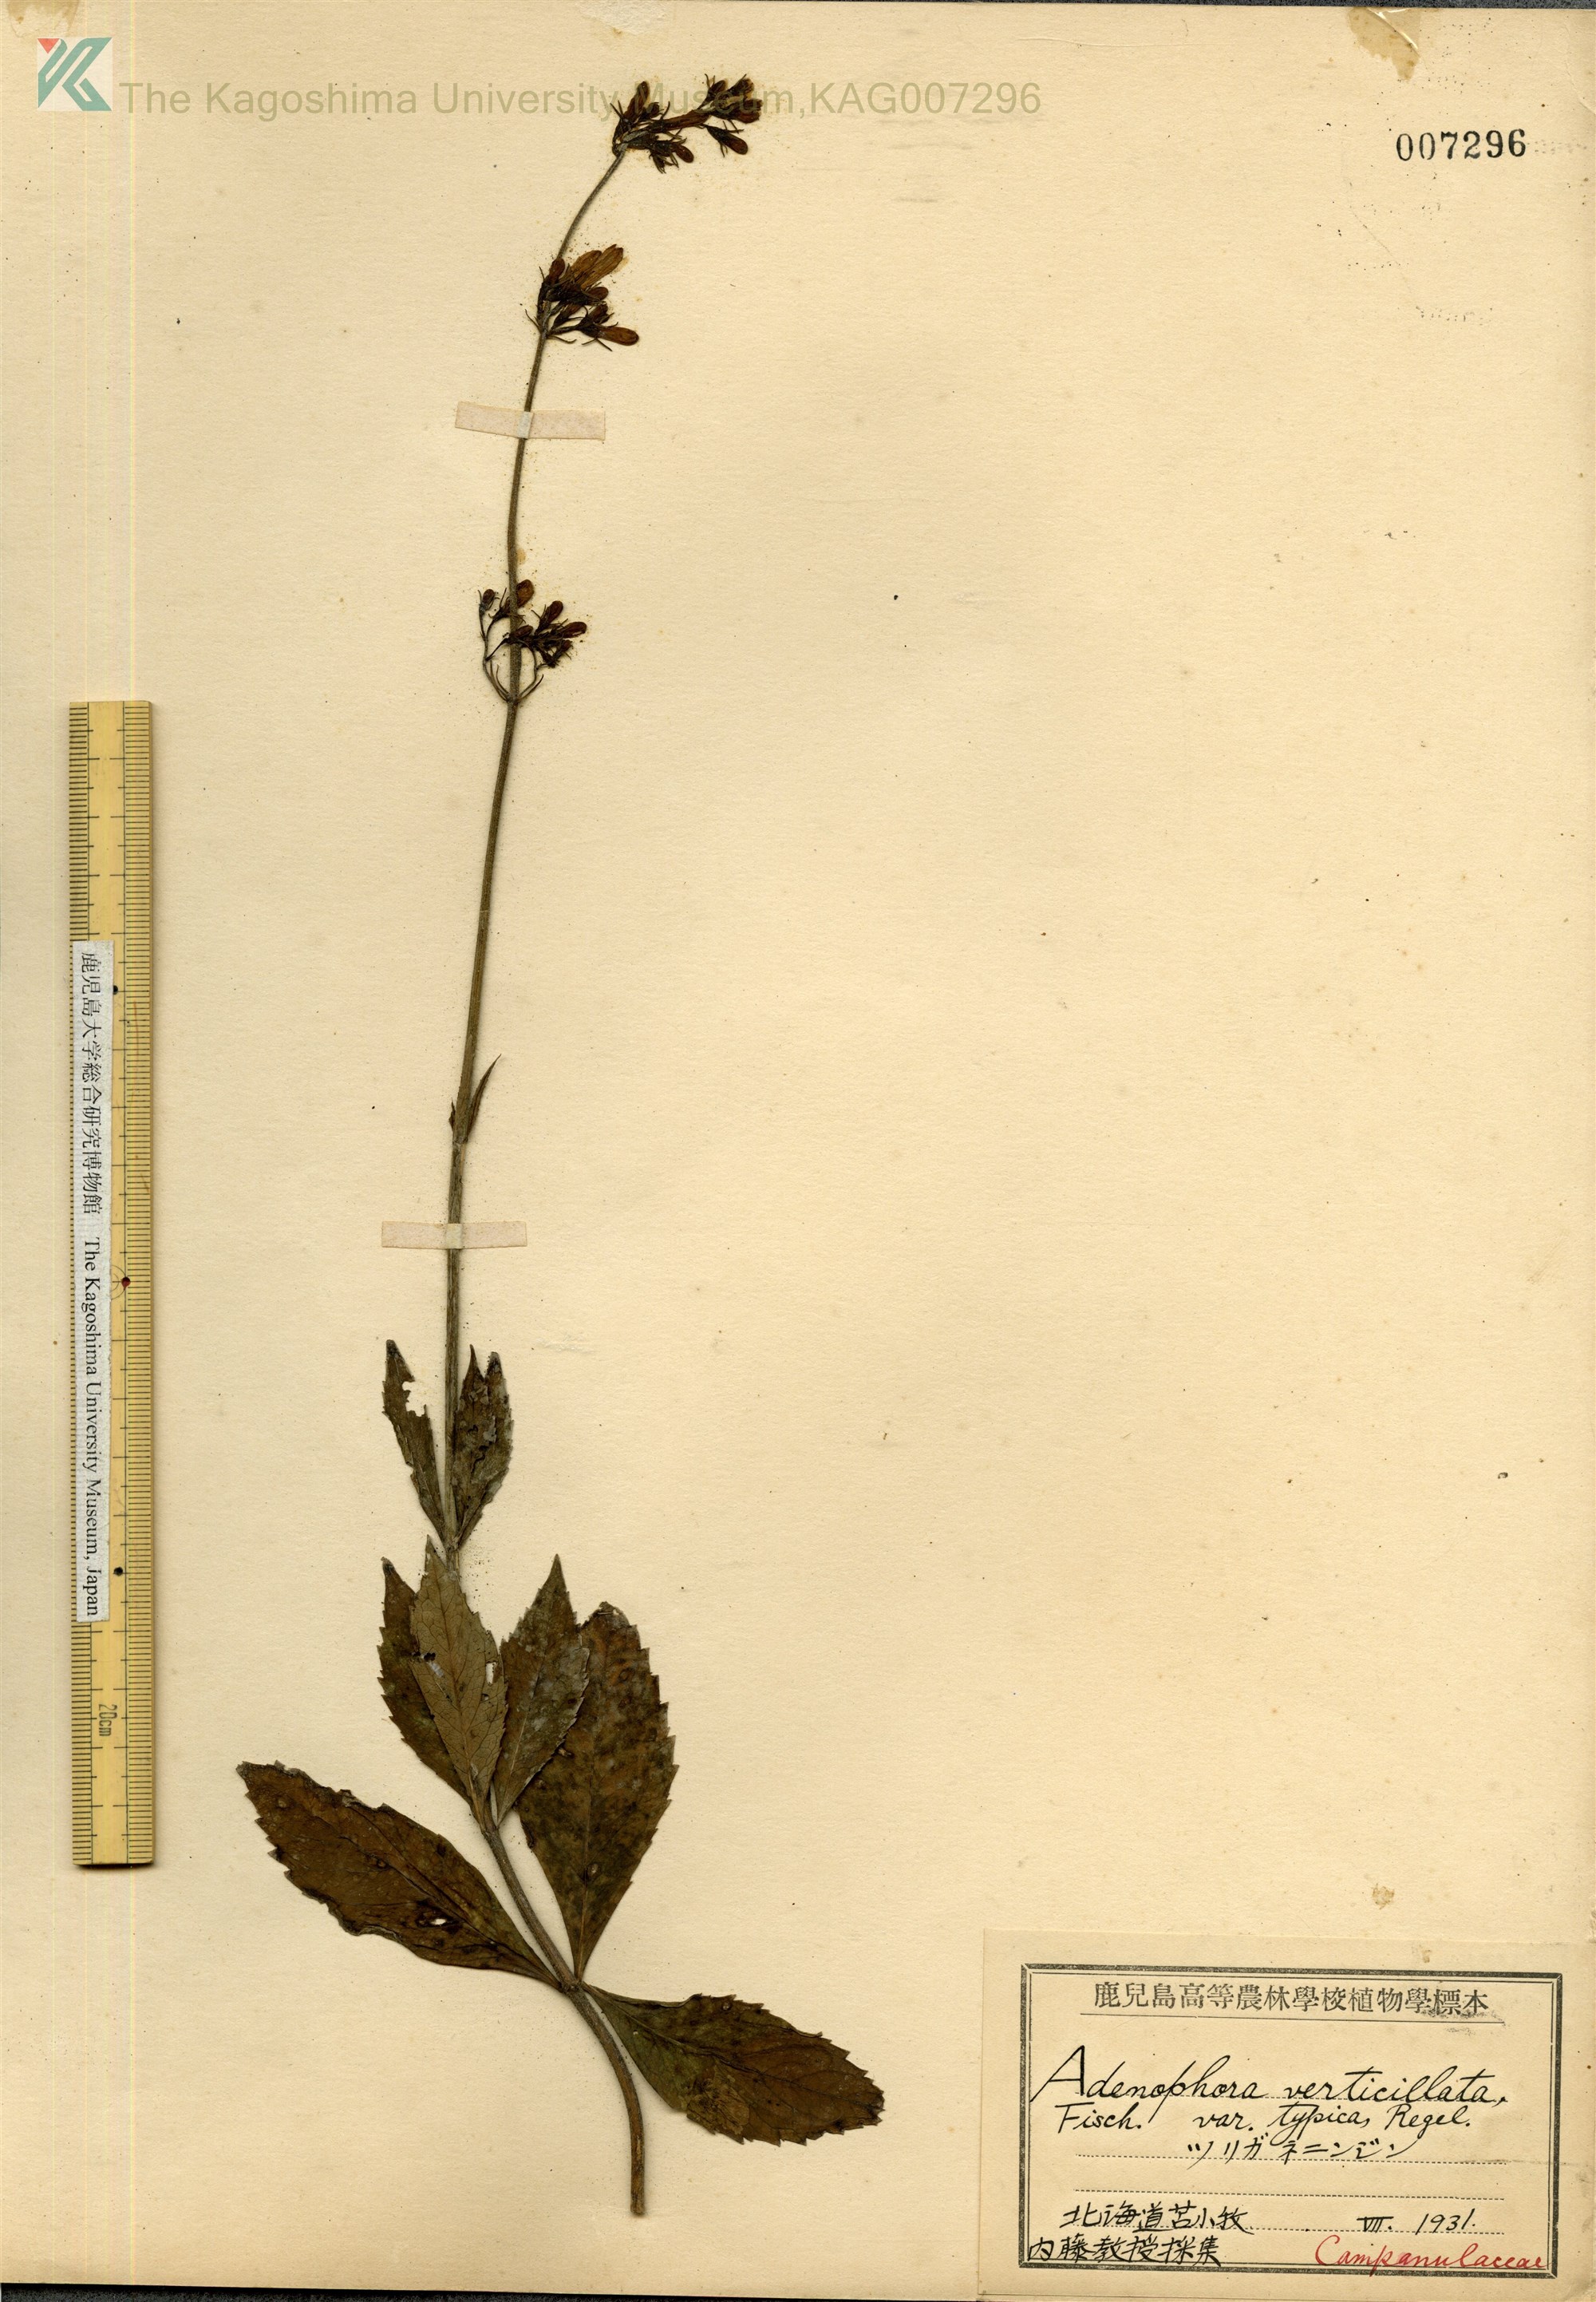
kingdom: Plantae
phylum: Tracheophyta
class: Magnoliopsida
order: Asterales
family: Campanulaceae
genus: Adenophora
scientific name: Adenophora triphylla
